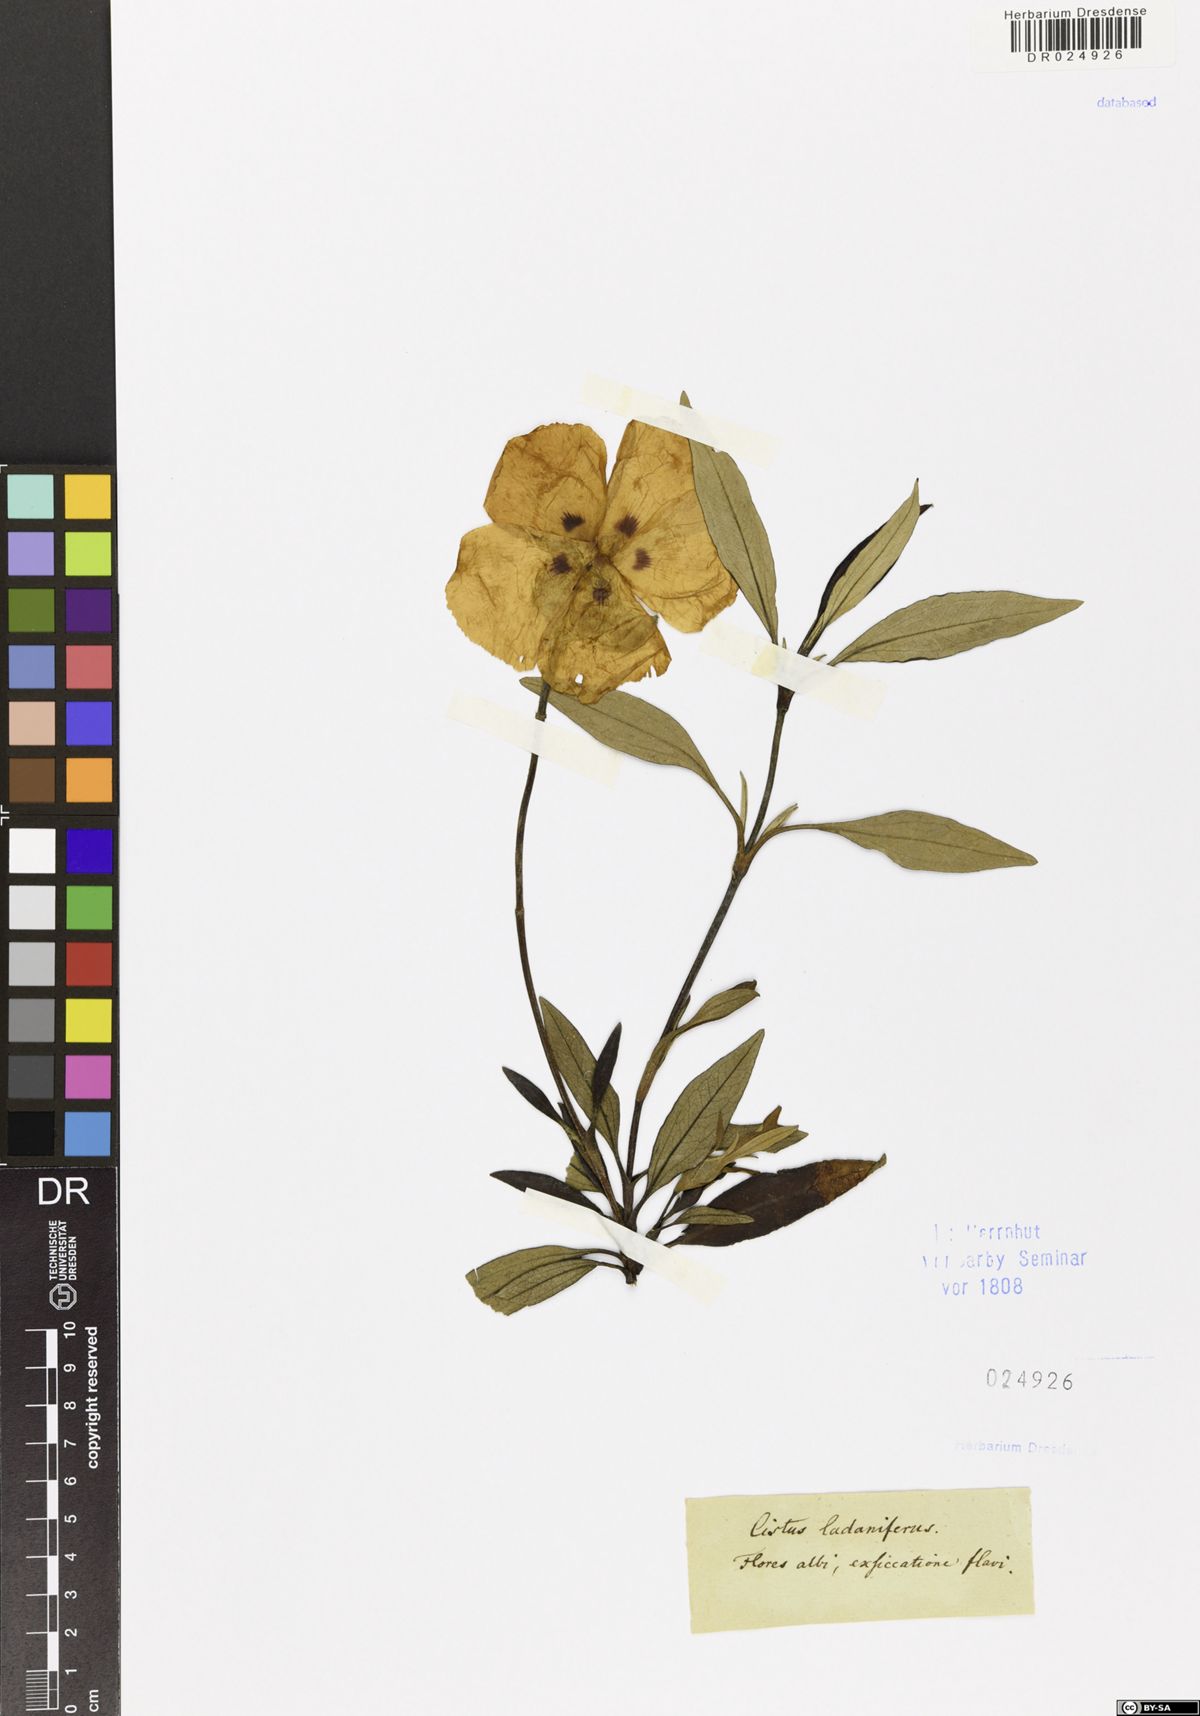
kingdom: Plantae
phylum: Tracheophyta
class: Magnoliopsida
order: Malvales
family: Cistaceae
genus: Cistus
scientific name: Cistus ladanifer
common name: Common gum cistus
